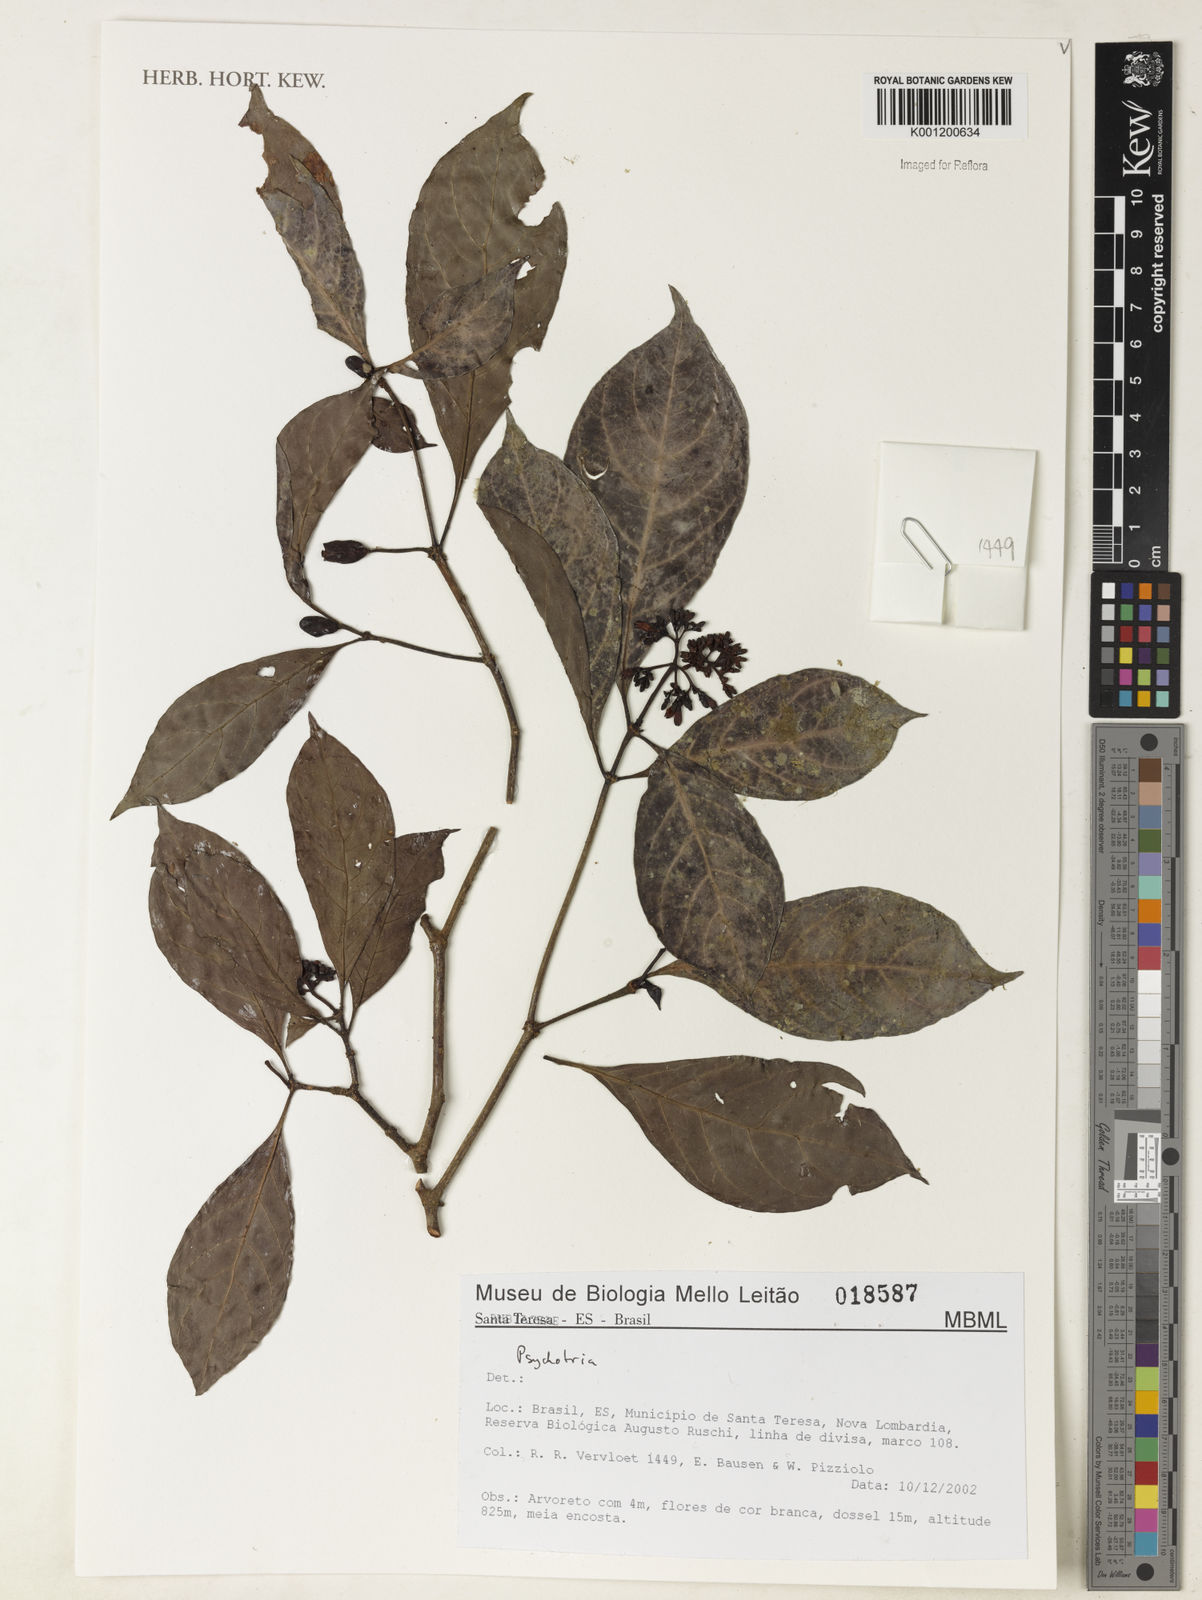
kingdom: Plantae
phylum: Tracheophyta
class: Magnoliopsida
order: Gentianales
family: Rubiaceae
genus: Psychotria
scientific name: Psychotria
